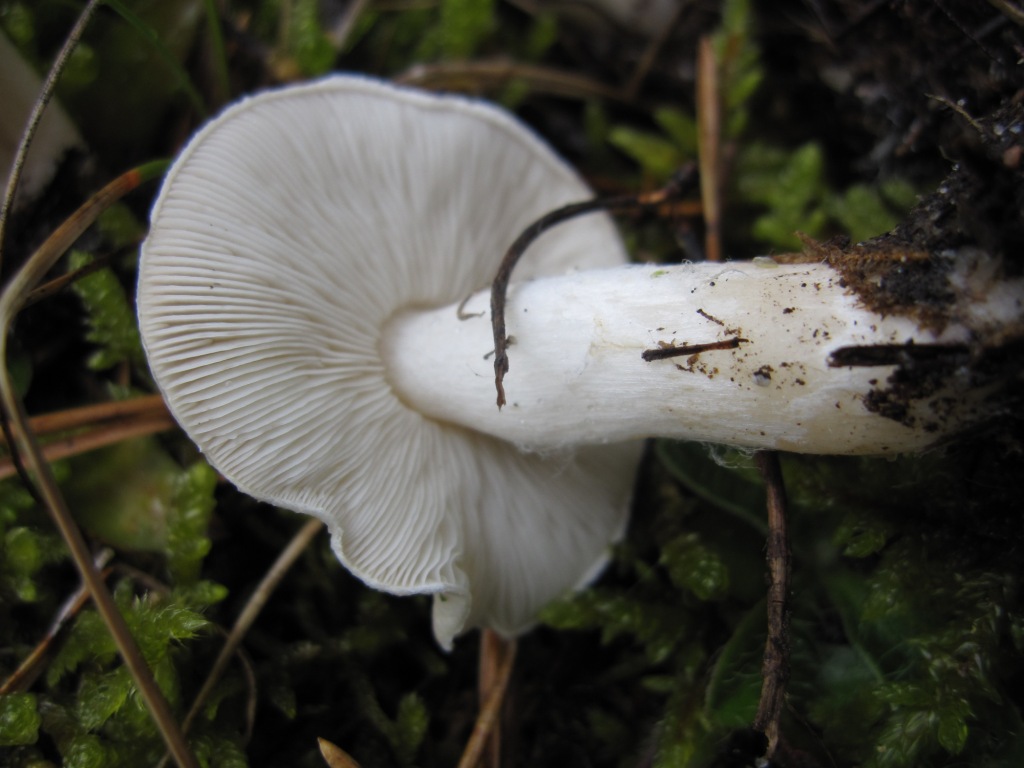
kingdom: Fungi
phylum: Basidiomycota
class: Agaricomycetes
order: Agaricales
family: Tricholomataceae
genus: Tricholoma
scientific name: Tricholoma argyraceum
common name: slør-ridderhat
